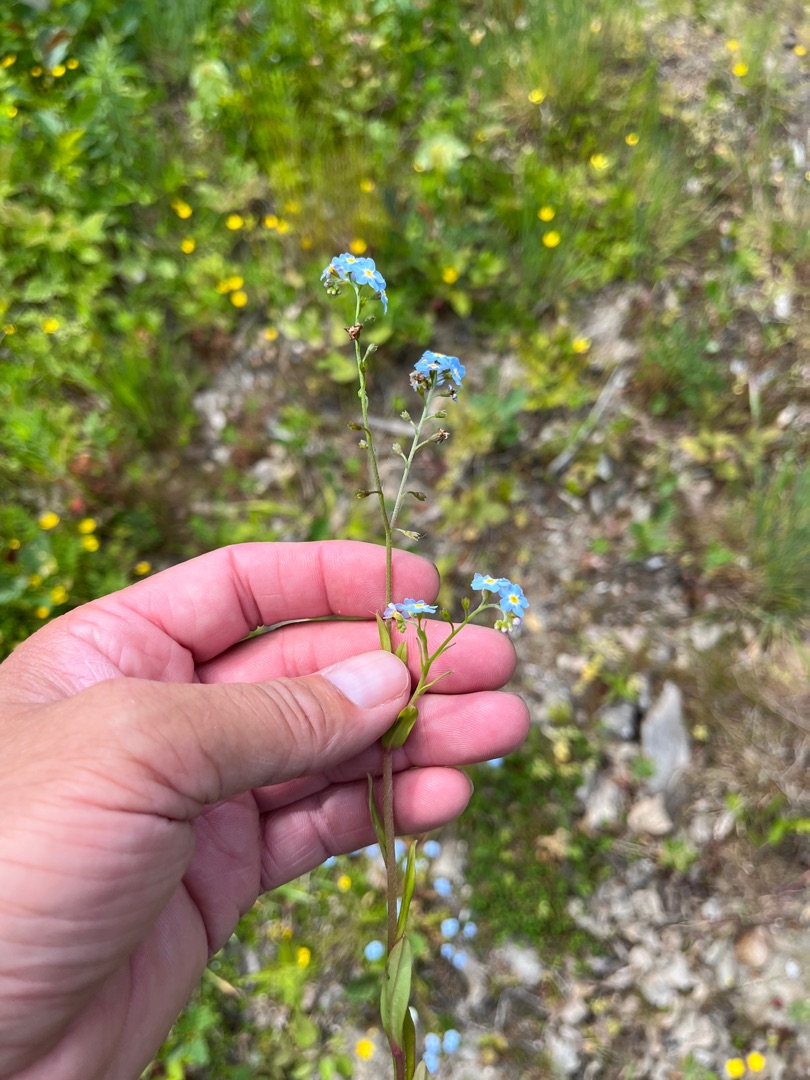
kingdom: Plantae
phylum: Tracheophyta
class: Magnoliopsida
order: Boraginales
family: Boraginaceae
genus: Myosotis
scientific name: Myosotis scorpioides
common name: Eng-forglemmigej
